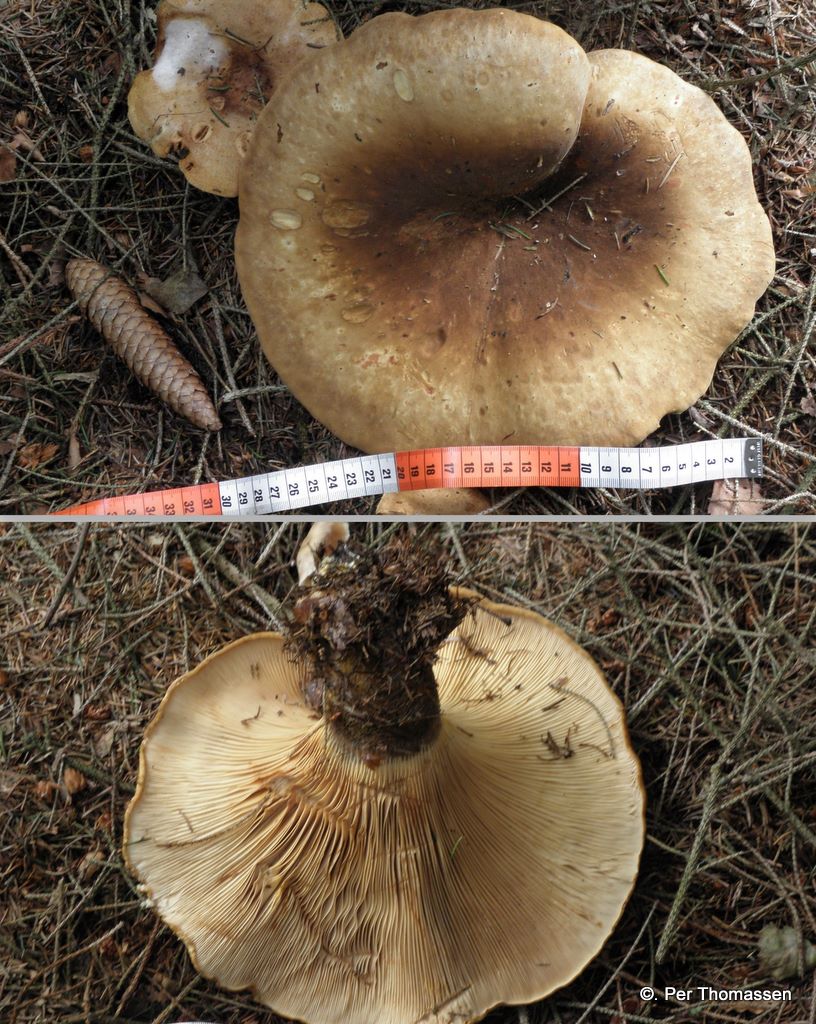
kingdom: Fungi
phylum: Basidiomycota
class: Agaricomycetes
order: Boletales
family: Tapinellaceae
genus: Tapinella
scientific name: Tapinella atrotomentosa
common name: sortfiltet viftesvamp
